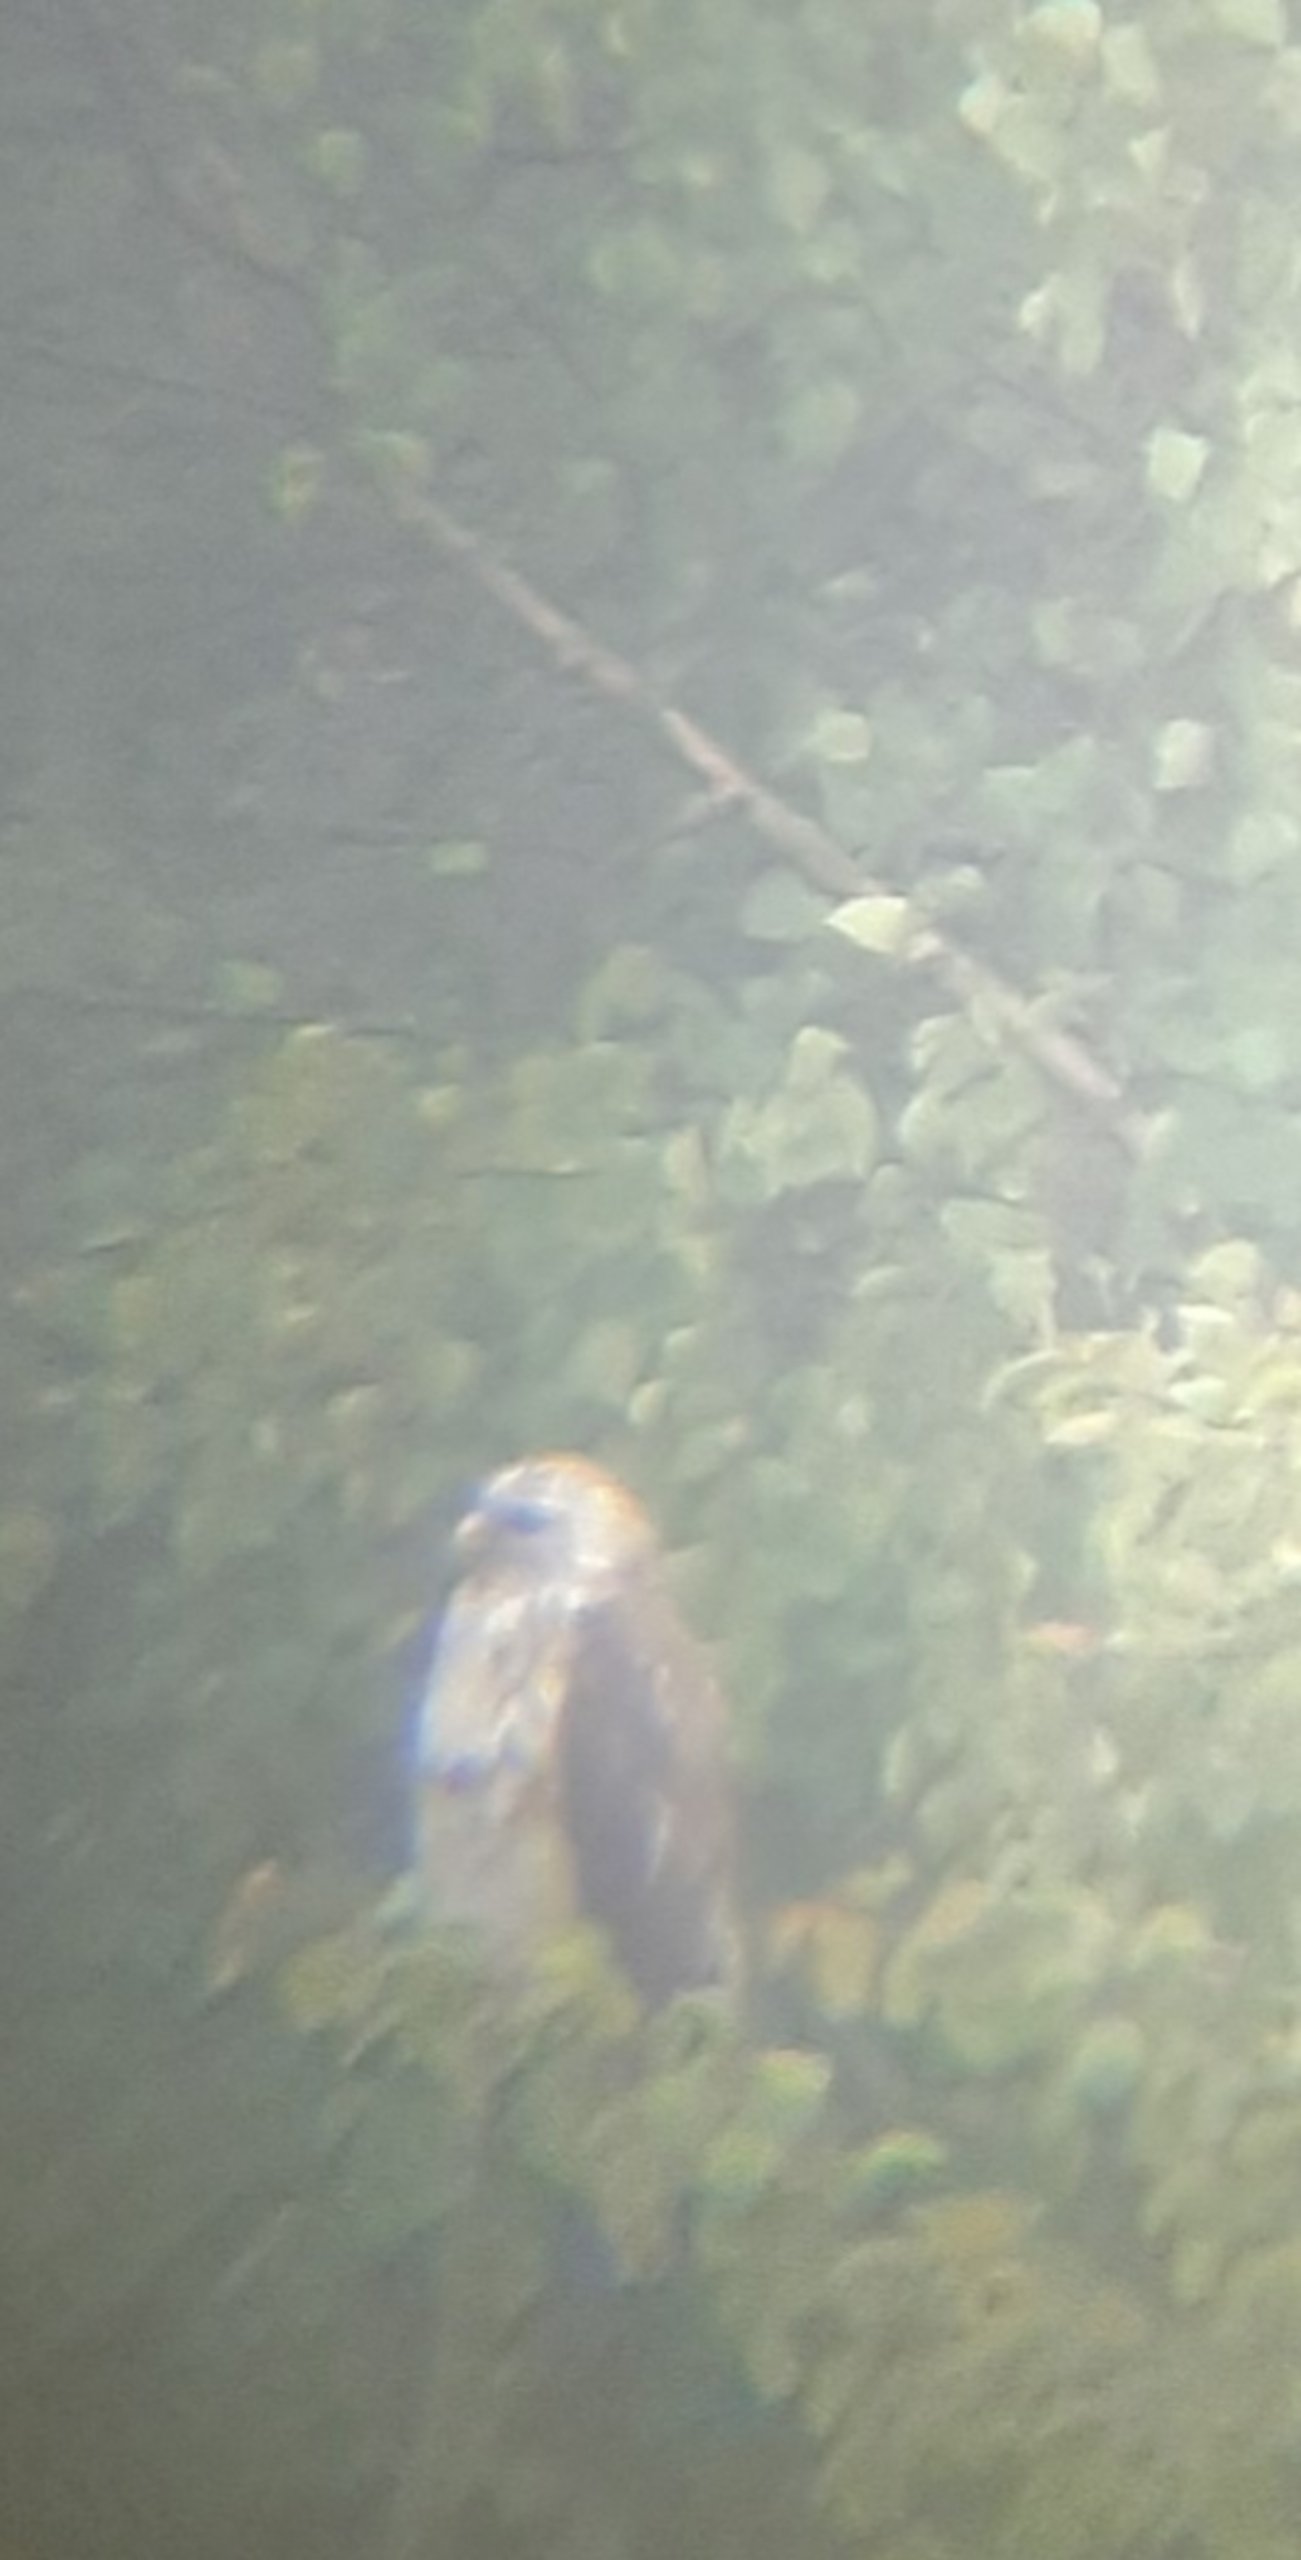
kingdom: Animalia
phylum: Chordata
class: Aves
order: Accipitriformes
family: Accipitridae
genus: Buteo
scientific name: Buteo buteo
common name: Musvåge
